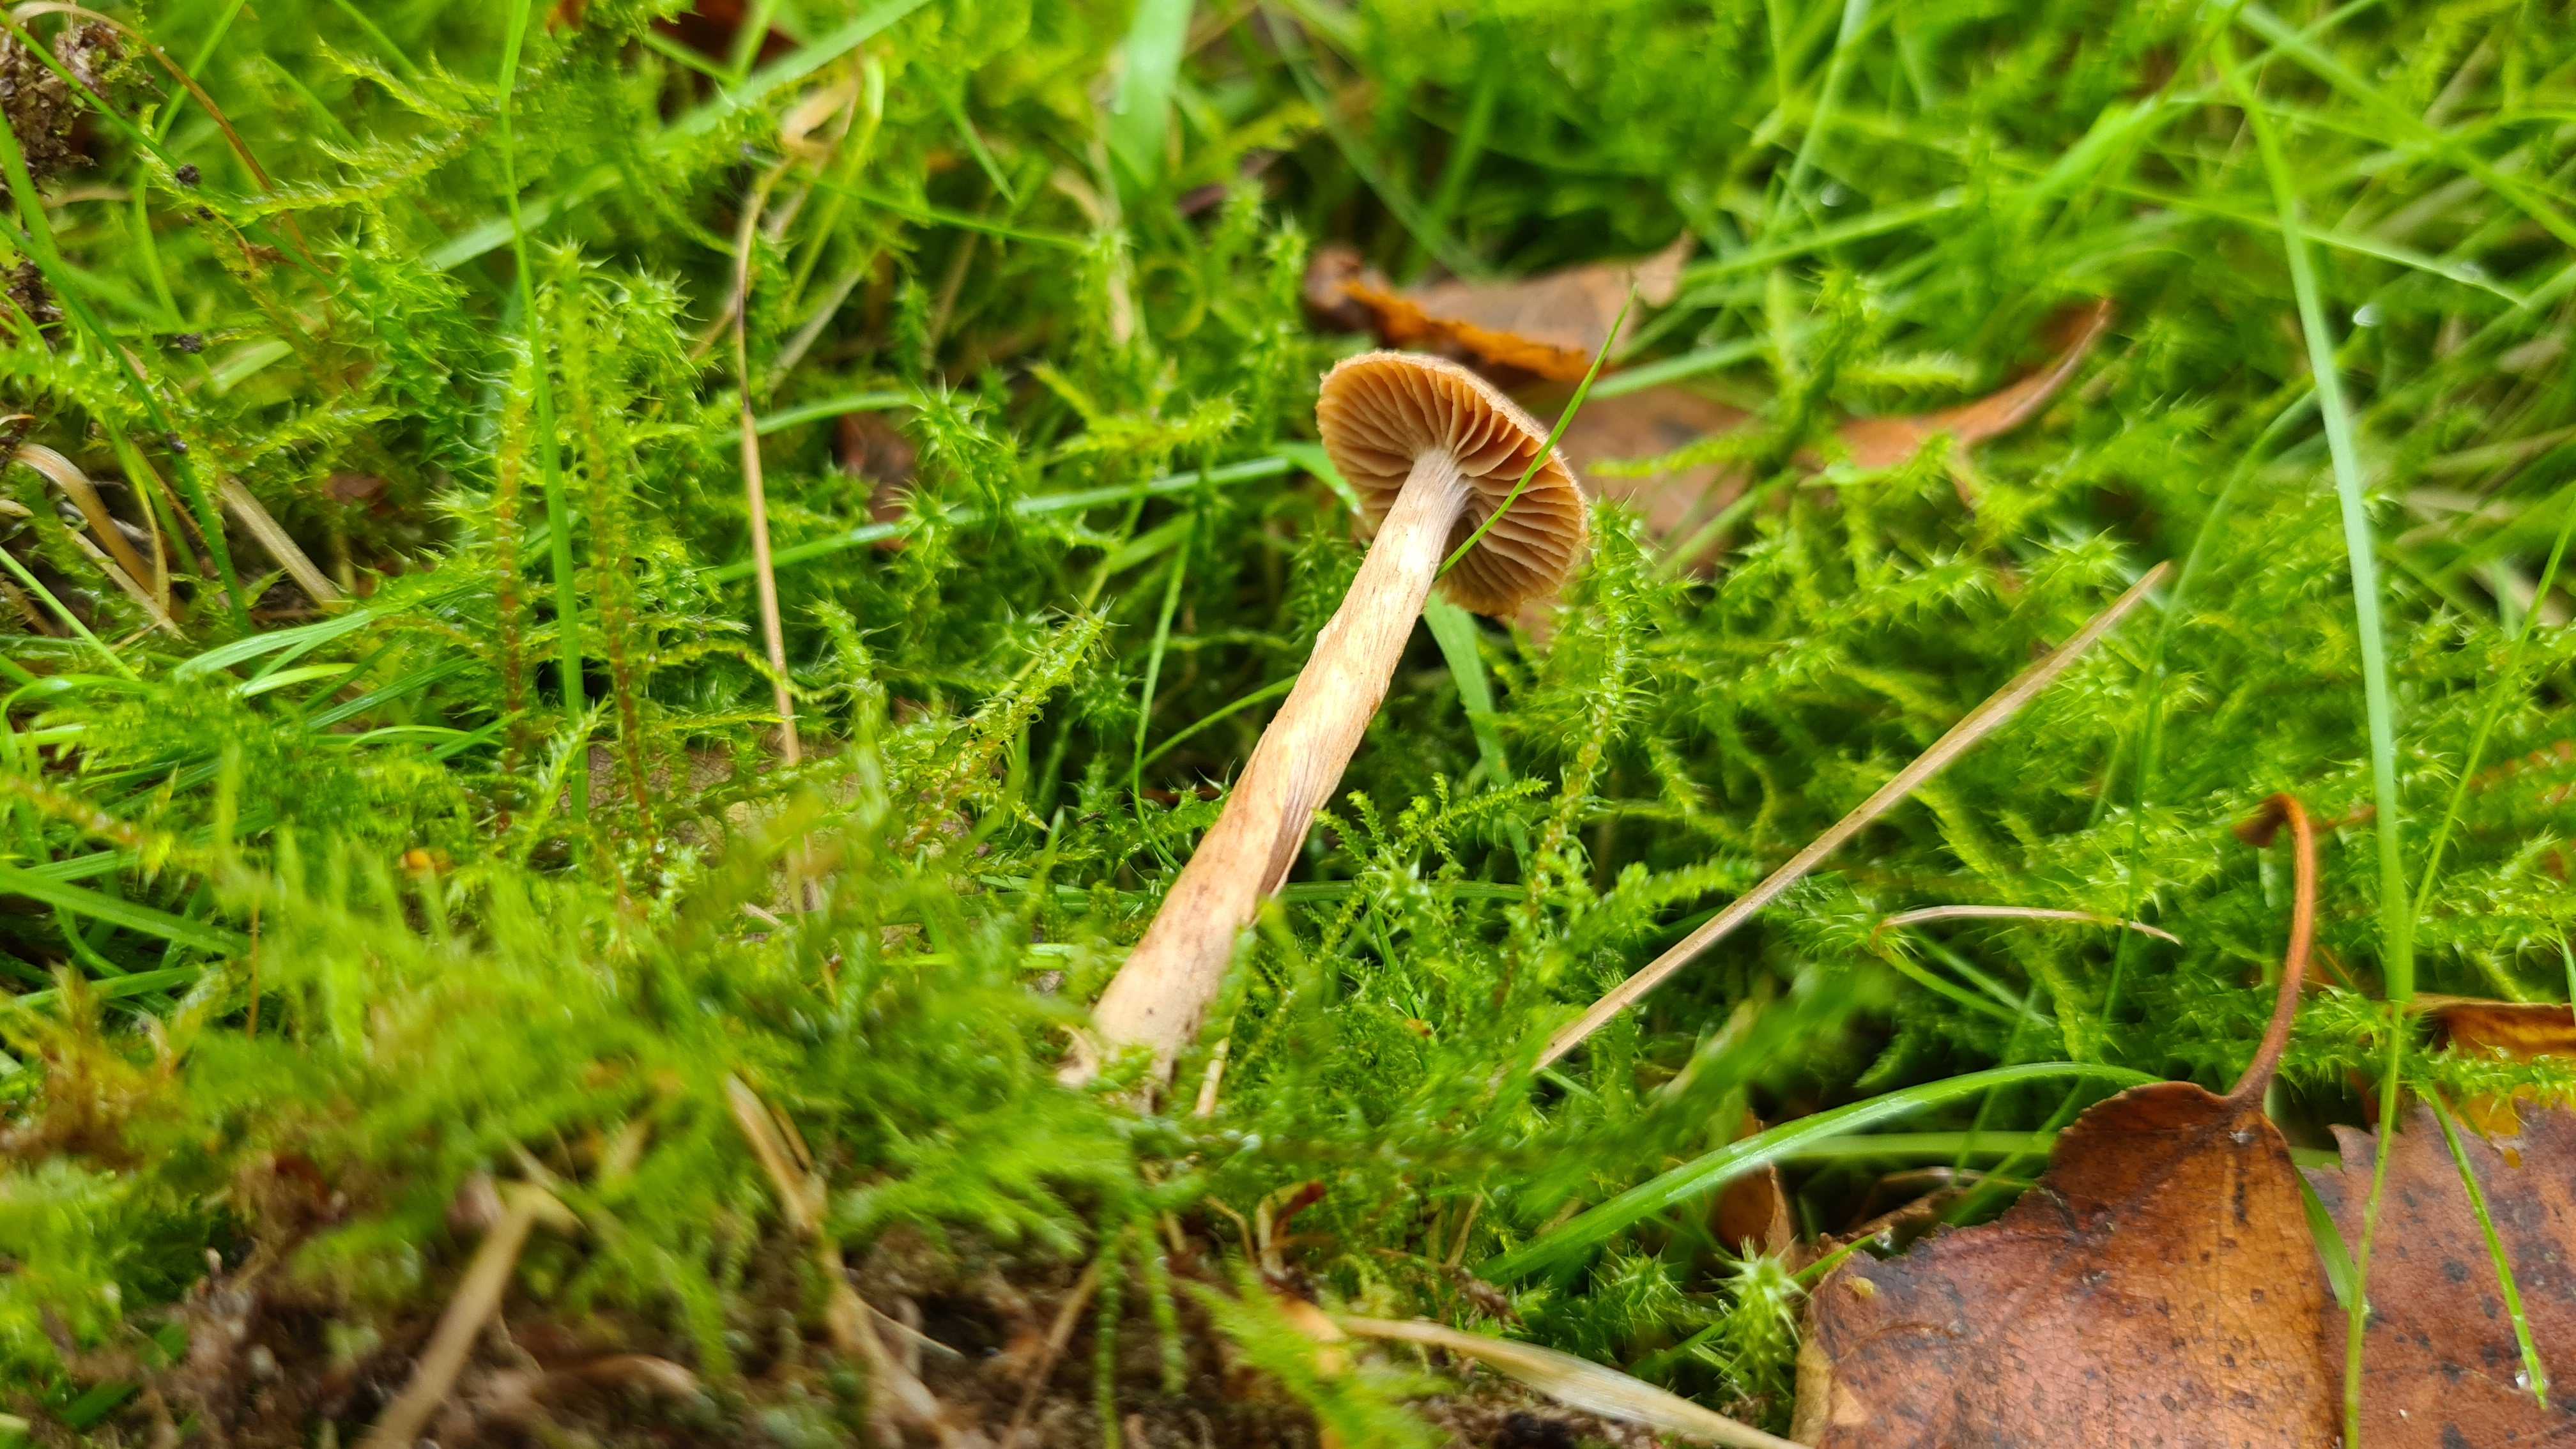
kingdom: Fungi
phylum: Basidiomycota
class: Agaricomycetes
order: Agaricales
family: Cortinariaceae
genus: Cortinarius
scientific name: Cortinarius
